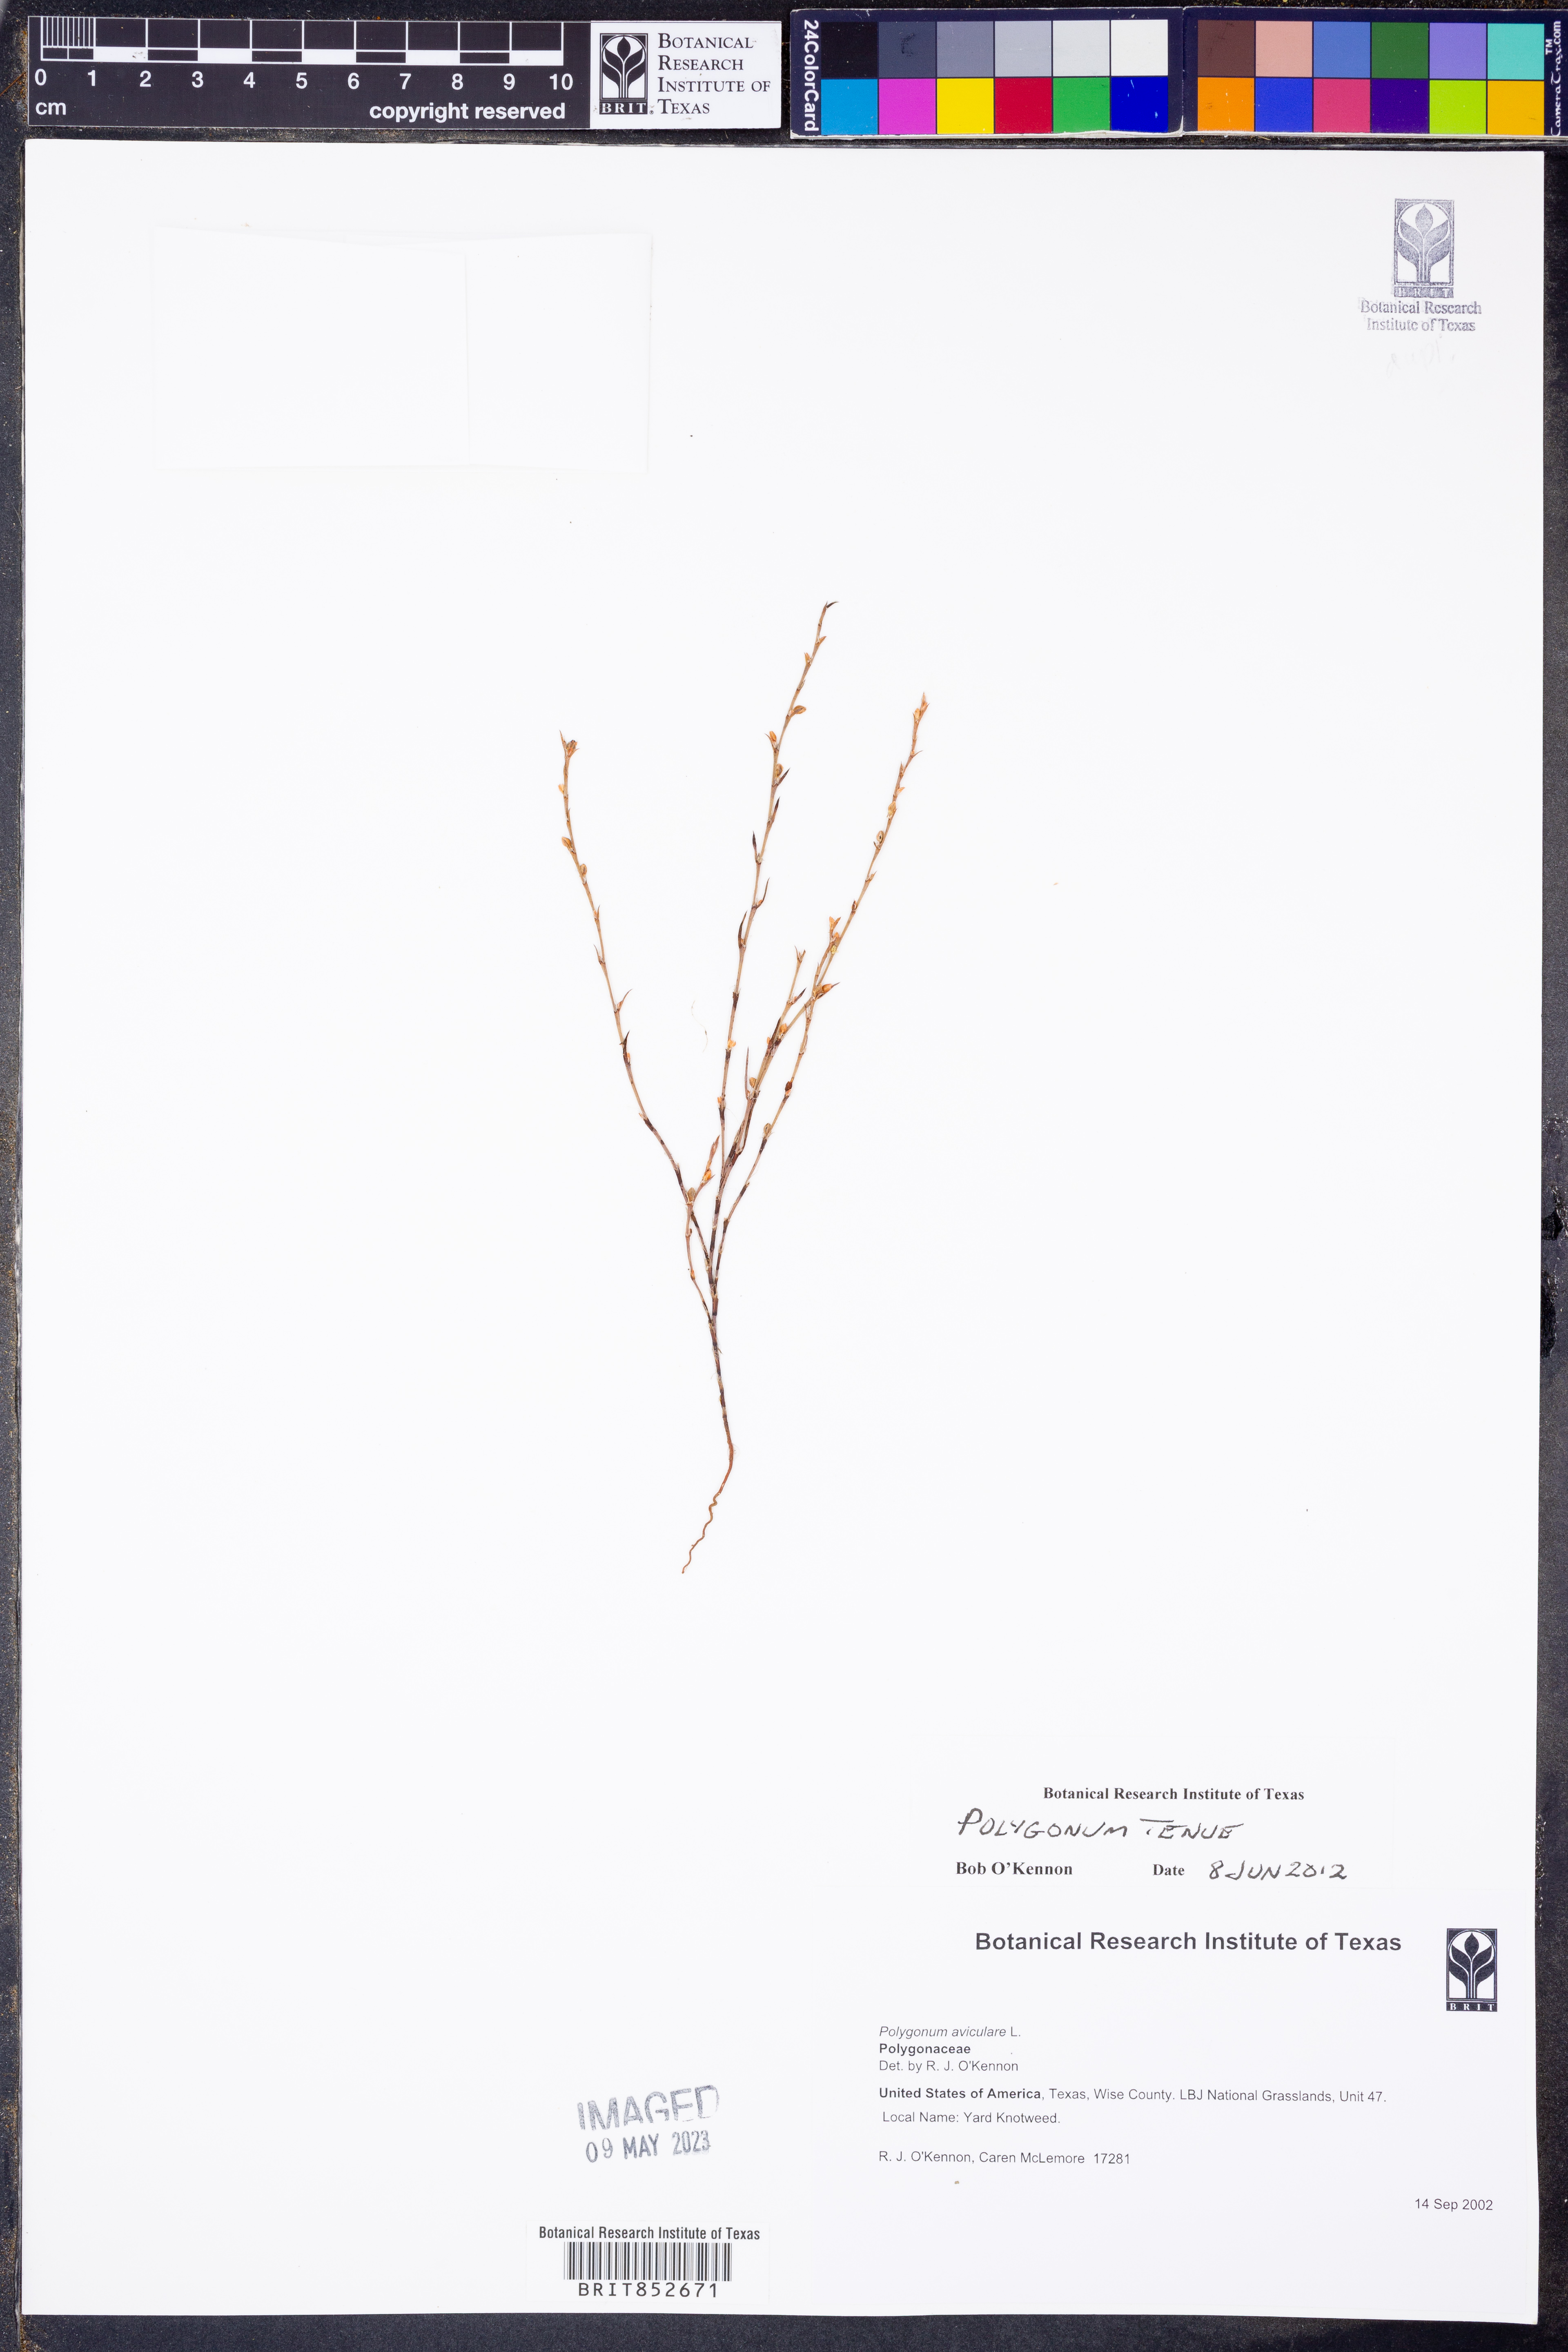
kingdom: Plantae
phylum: Tracheophyta
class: Magnoliopsida
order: Caryophyllales
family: Polygonaceae
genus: Polygonum
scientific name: Polygonum tenue
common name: Pleat-leaved knotweed
